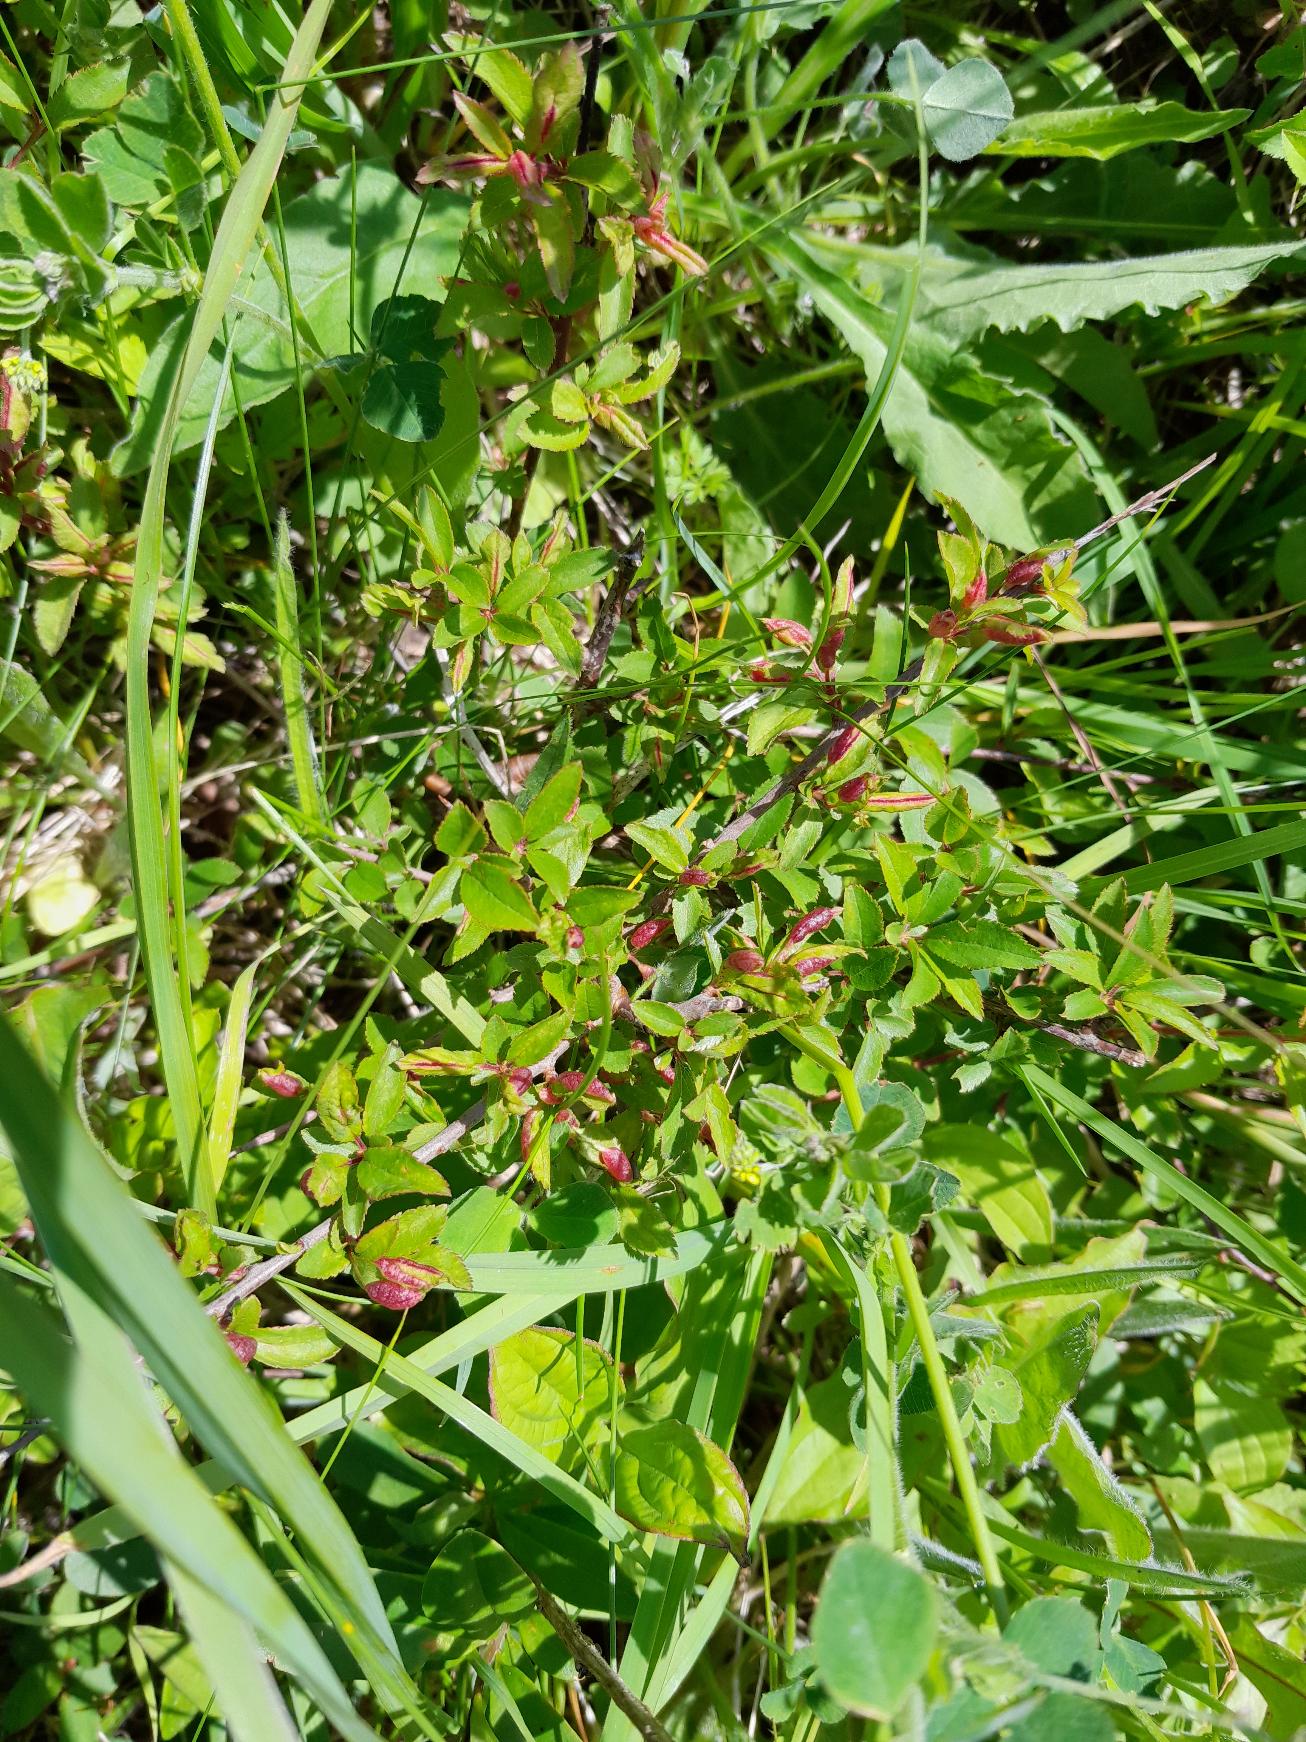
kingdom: Animalia
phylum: Arthropoda
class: Insecta
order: Diptera
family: Cecidomyiidae
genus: Putoniella
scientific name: Putoniella pruni
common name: Slåenvulstgalmyg
